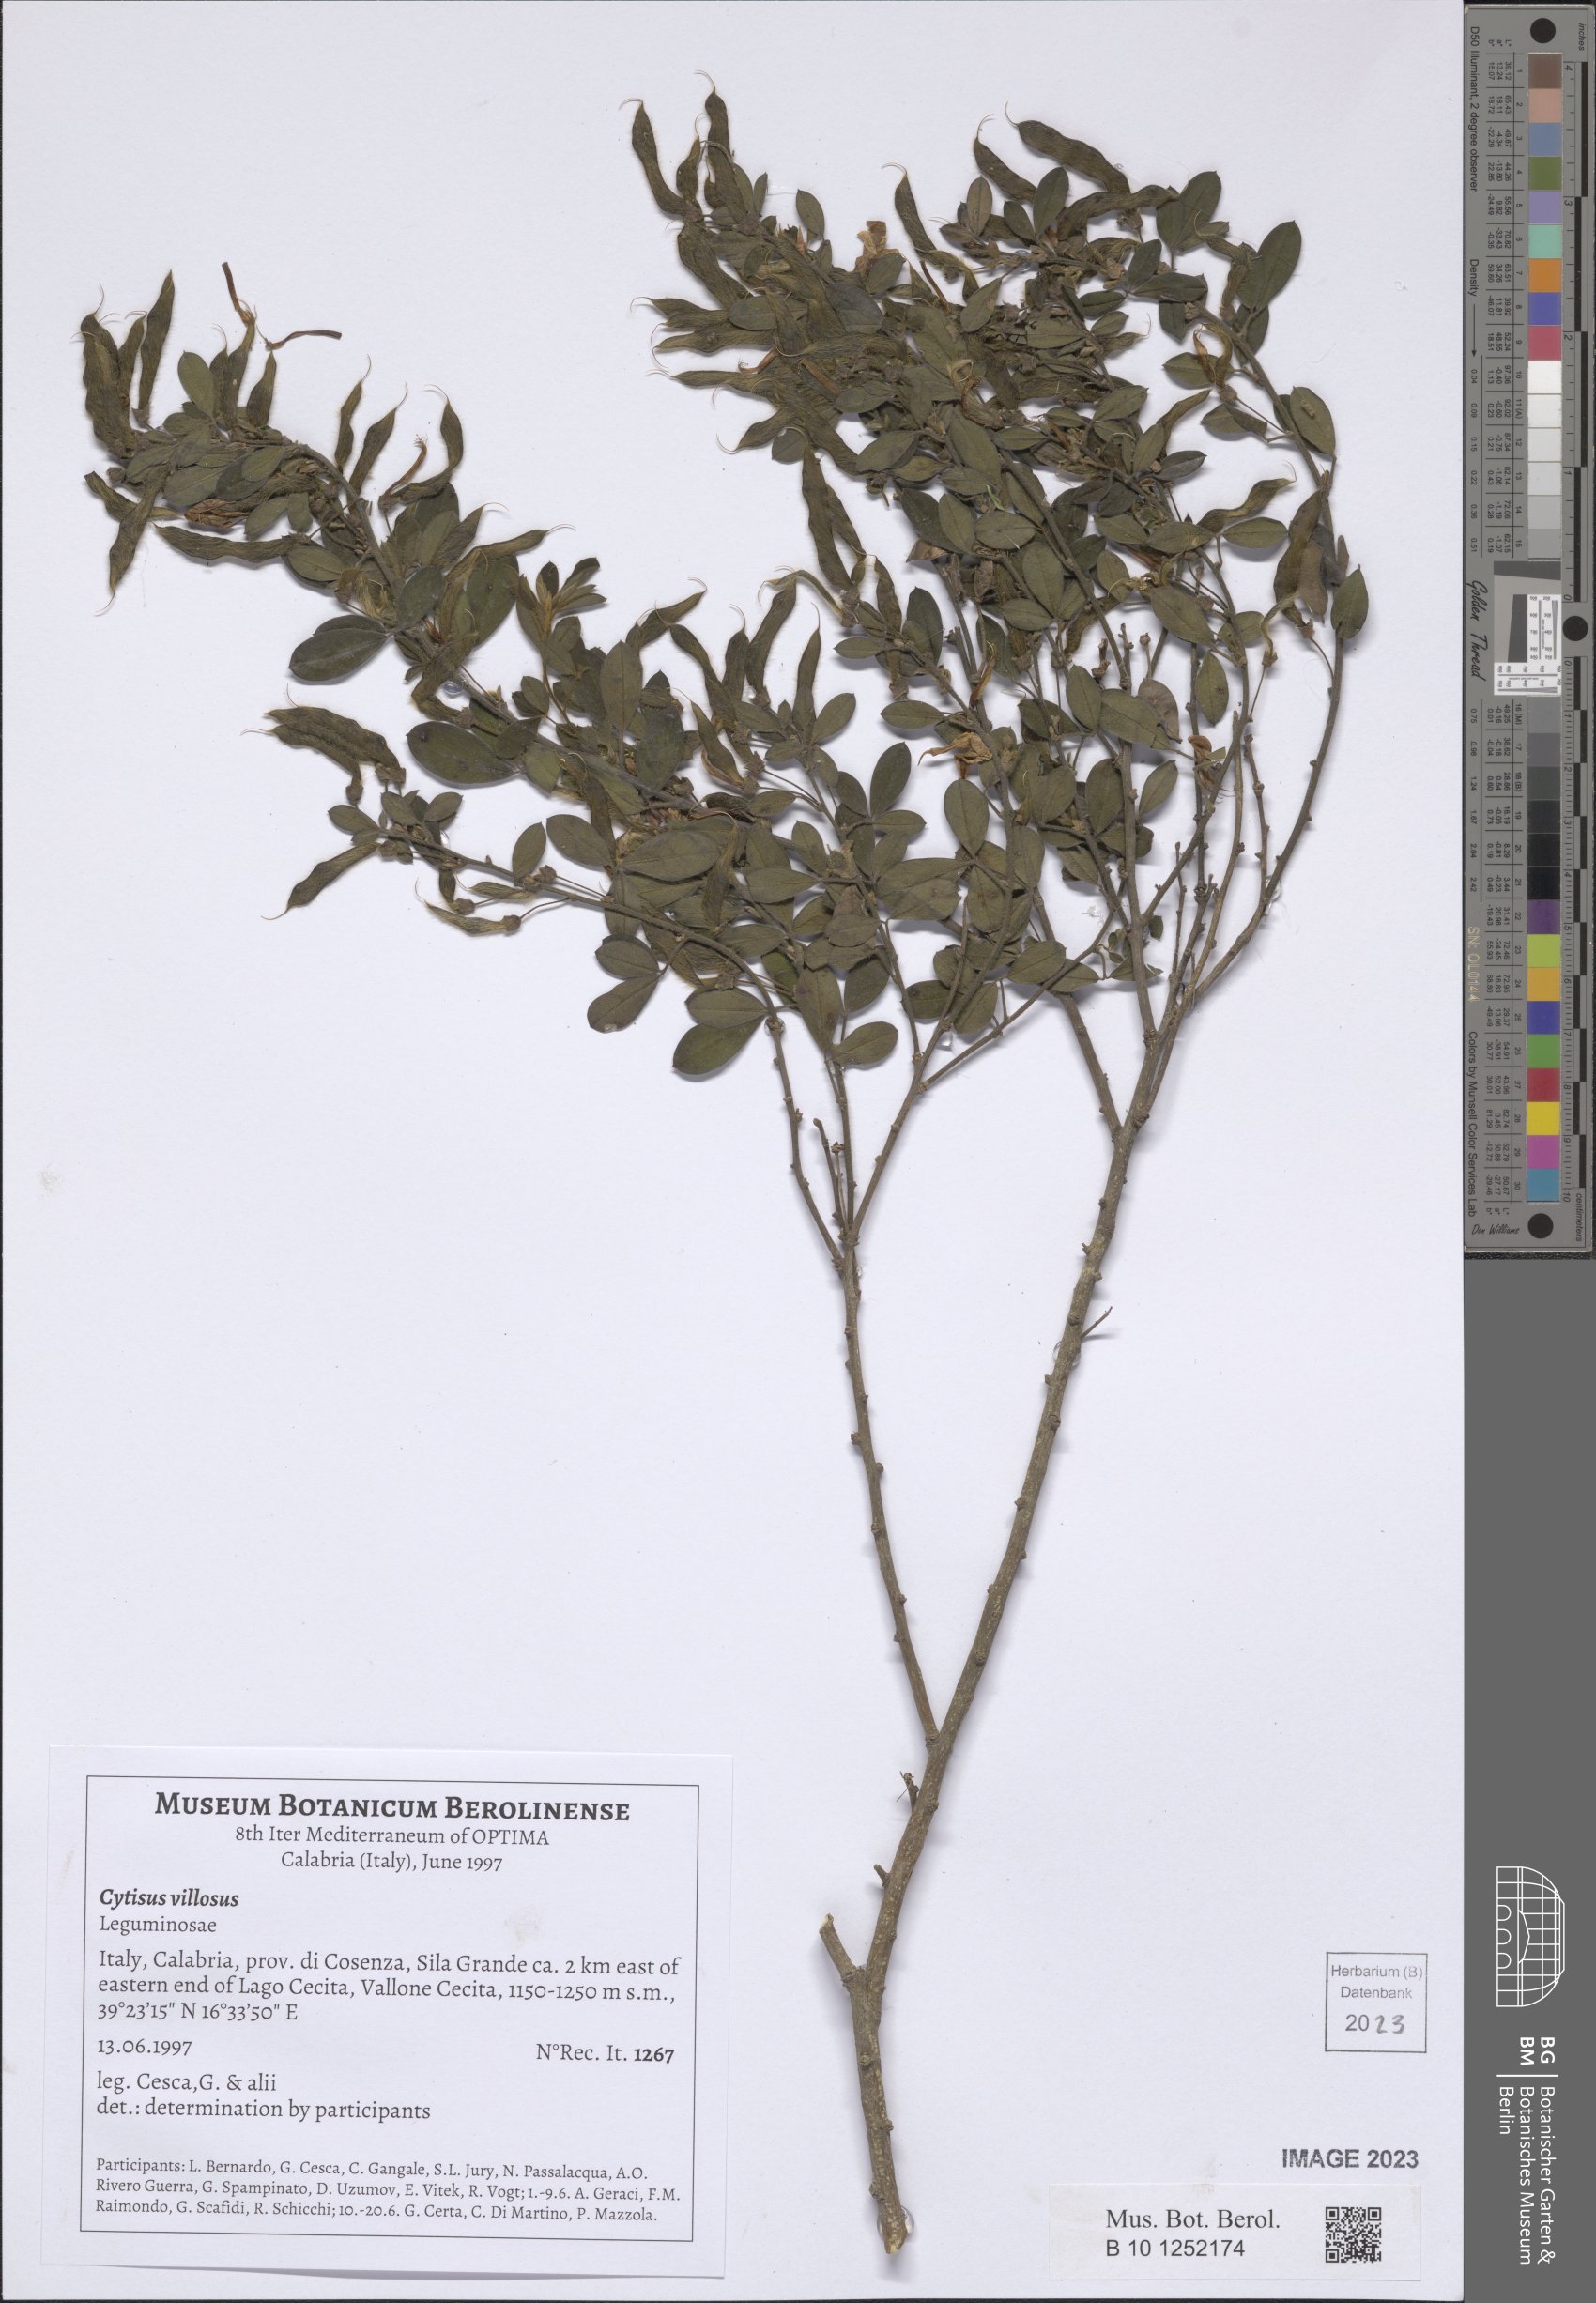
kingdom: Plantae
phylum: Tracheophyta
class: Magnoliopsida
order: Fabales
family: Fabaceae
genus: Cytisus
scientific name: Cytisus villosus
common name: Hairybroom
